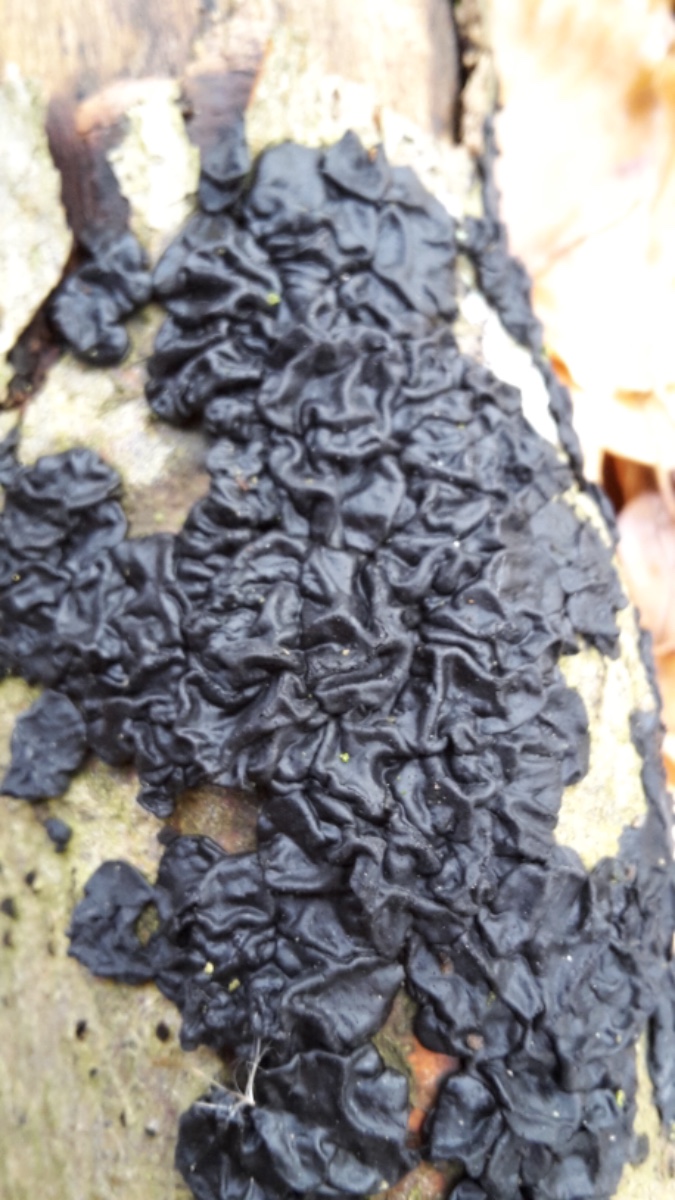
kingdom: Fungi
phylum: Basidiomycota
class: Agaricomycetes
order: Auriculariales
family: Auriculariaceae
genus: Exidia
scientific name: Exidia nigricans
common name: almindelig bævretop
